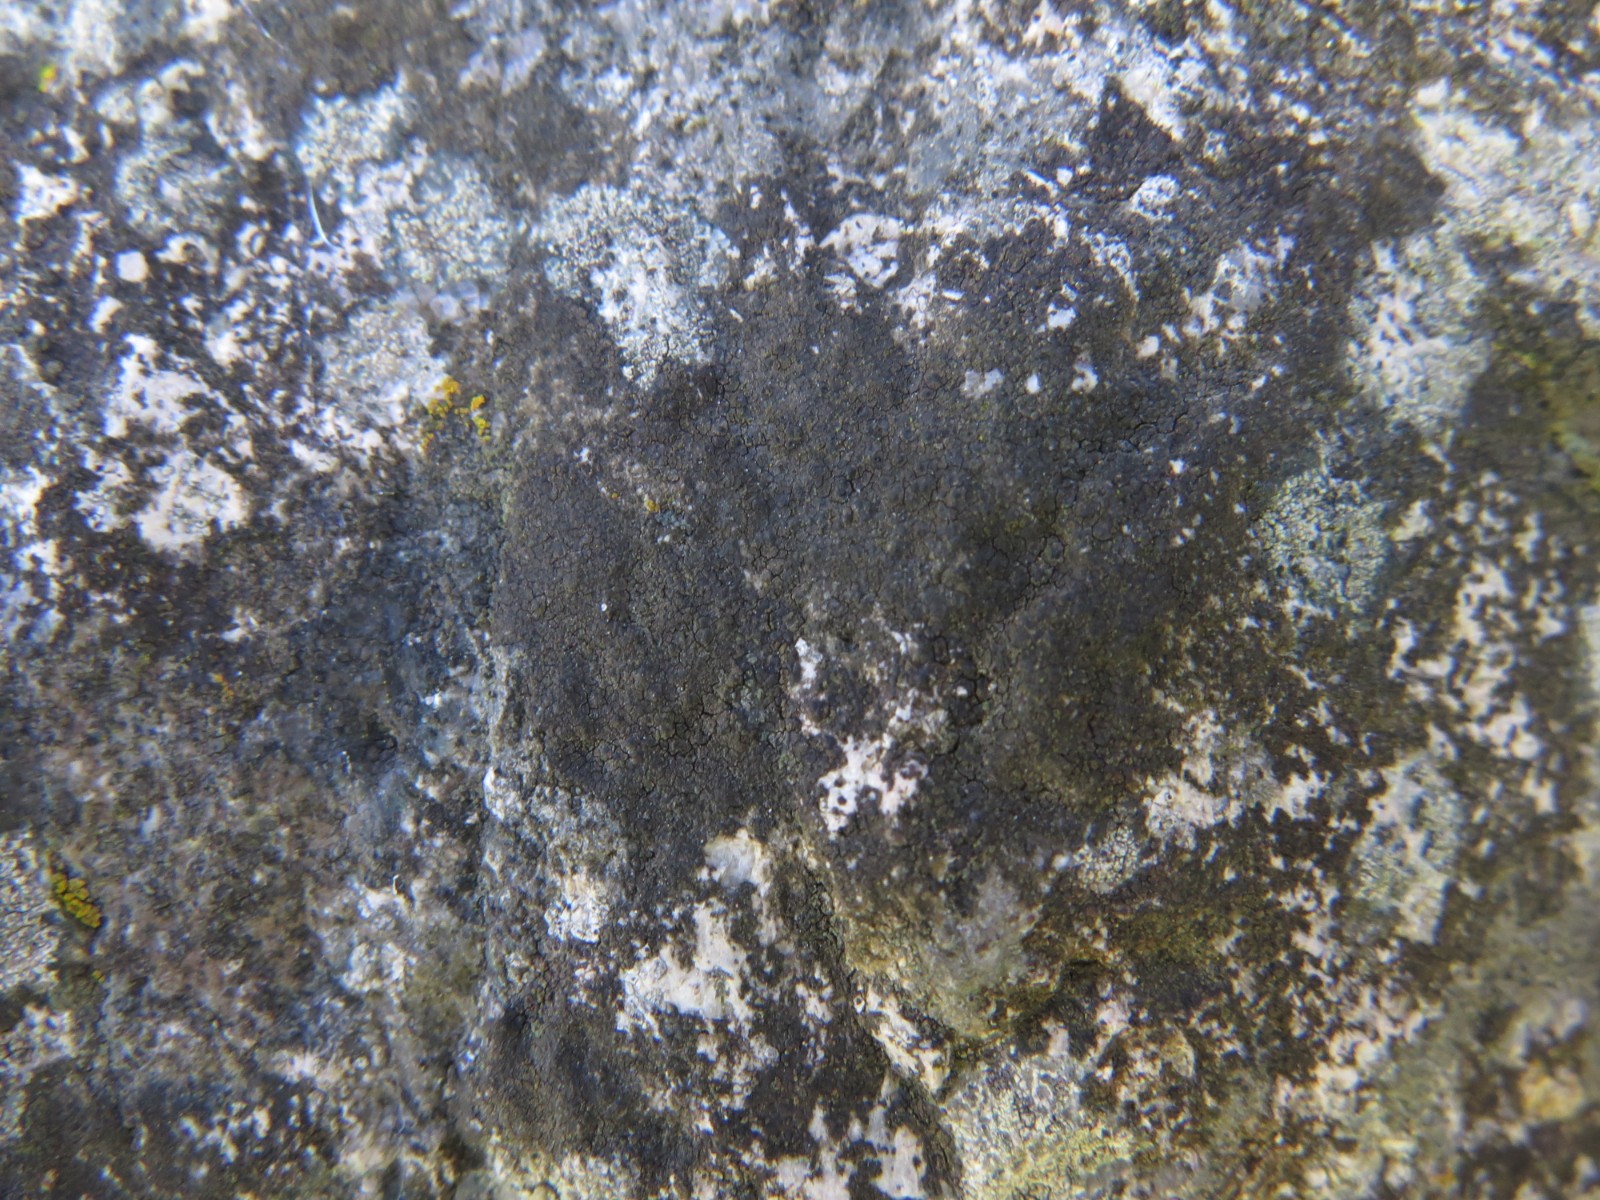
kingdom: Fungi
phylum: Ascomycota
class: Eurotiomycetes
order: Verrucariales
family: Verrucariaceae
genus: Verrucaria
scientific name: Verrucaria nigrescens
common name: sortbrun vortelav
